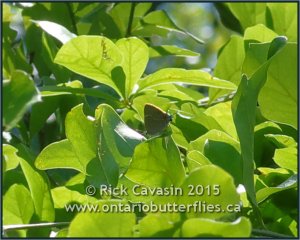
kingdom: Animalia
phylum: Arthropoda
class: Insecta
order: Lepidoptera
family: Lycaenidae
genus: Parrhasius
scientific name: Parrhasius m-album
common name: White-m Hairstreak
